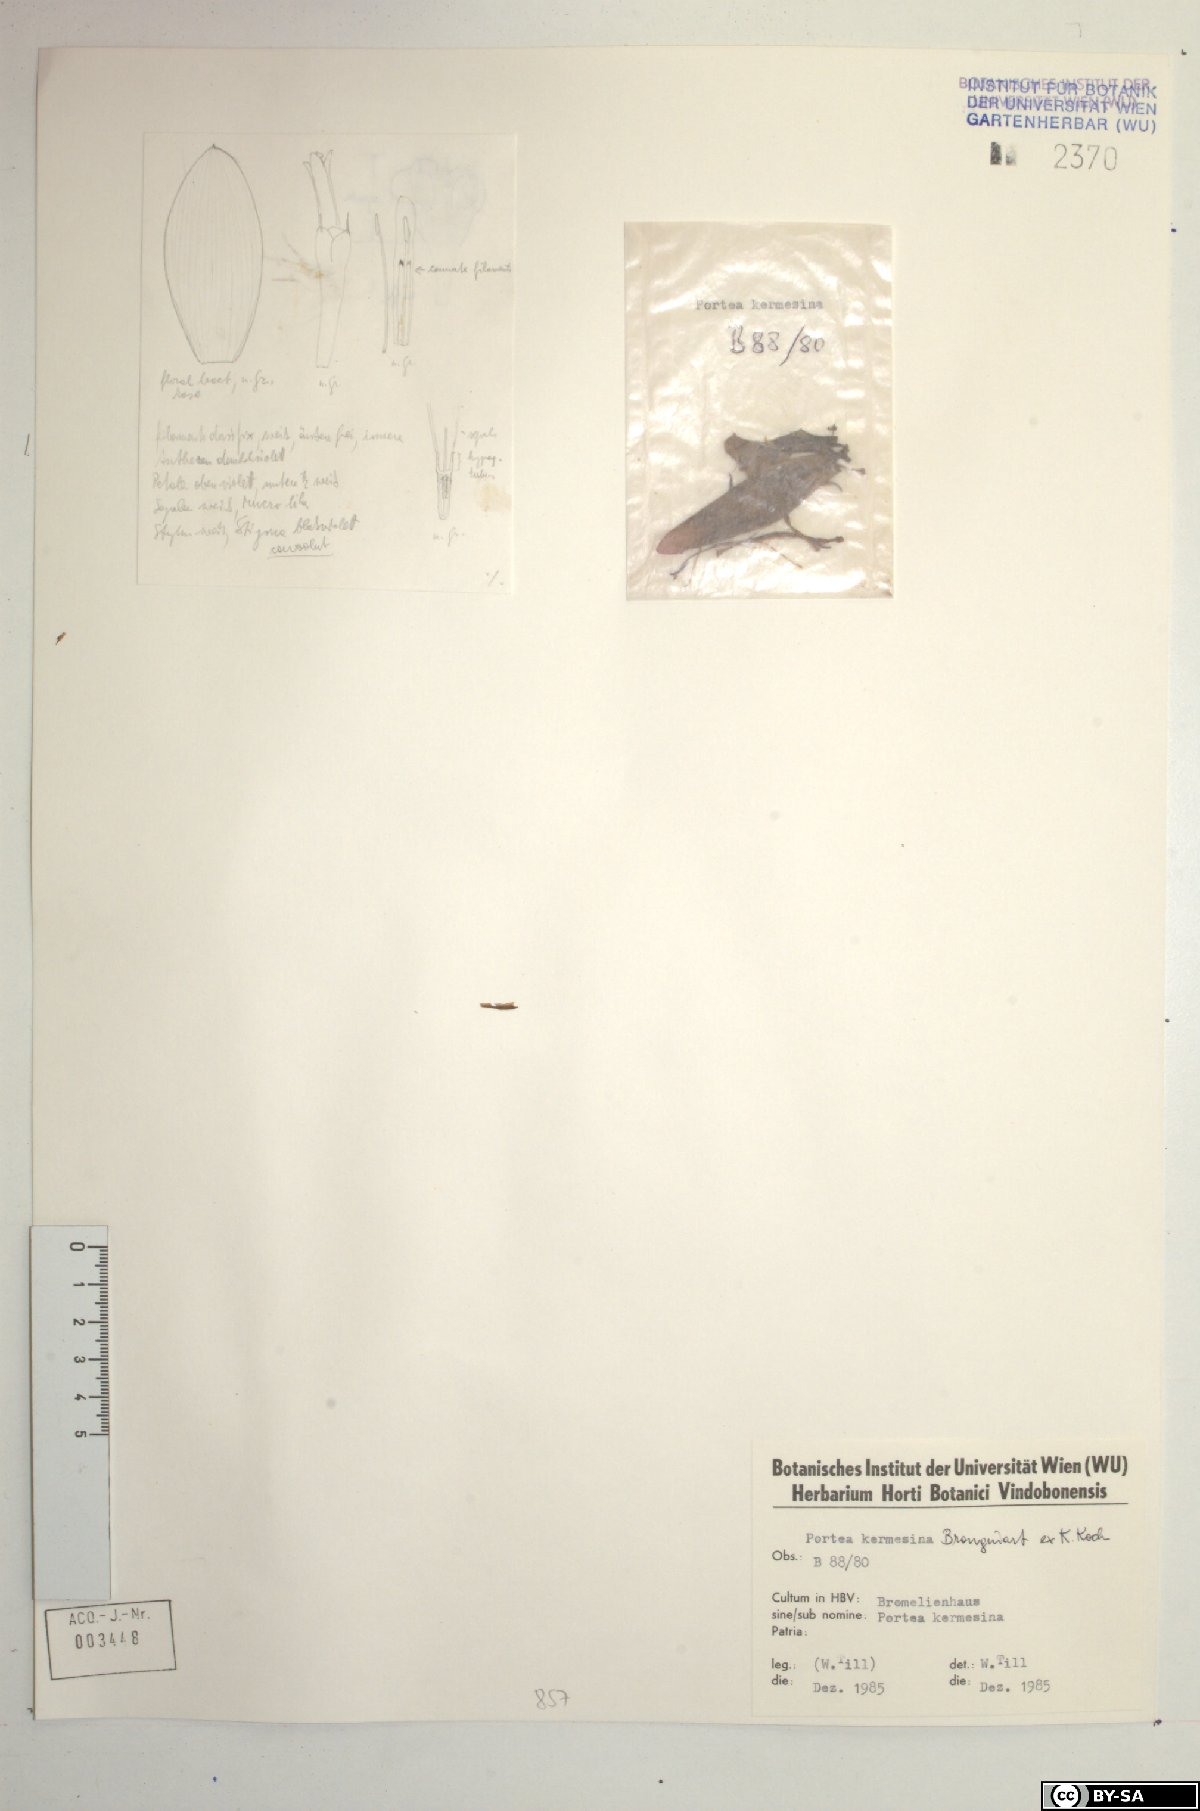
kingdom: Plantae
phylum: Tracheophyta
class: Liliopsida
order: Poales
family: Bromeliaceae
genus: Portea
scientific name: Portea kermesina
